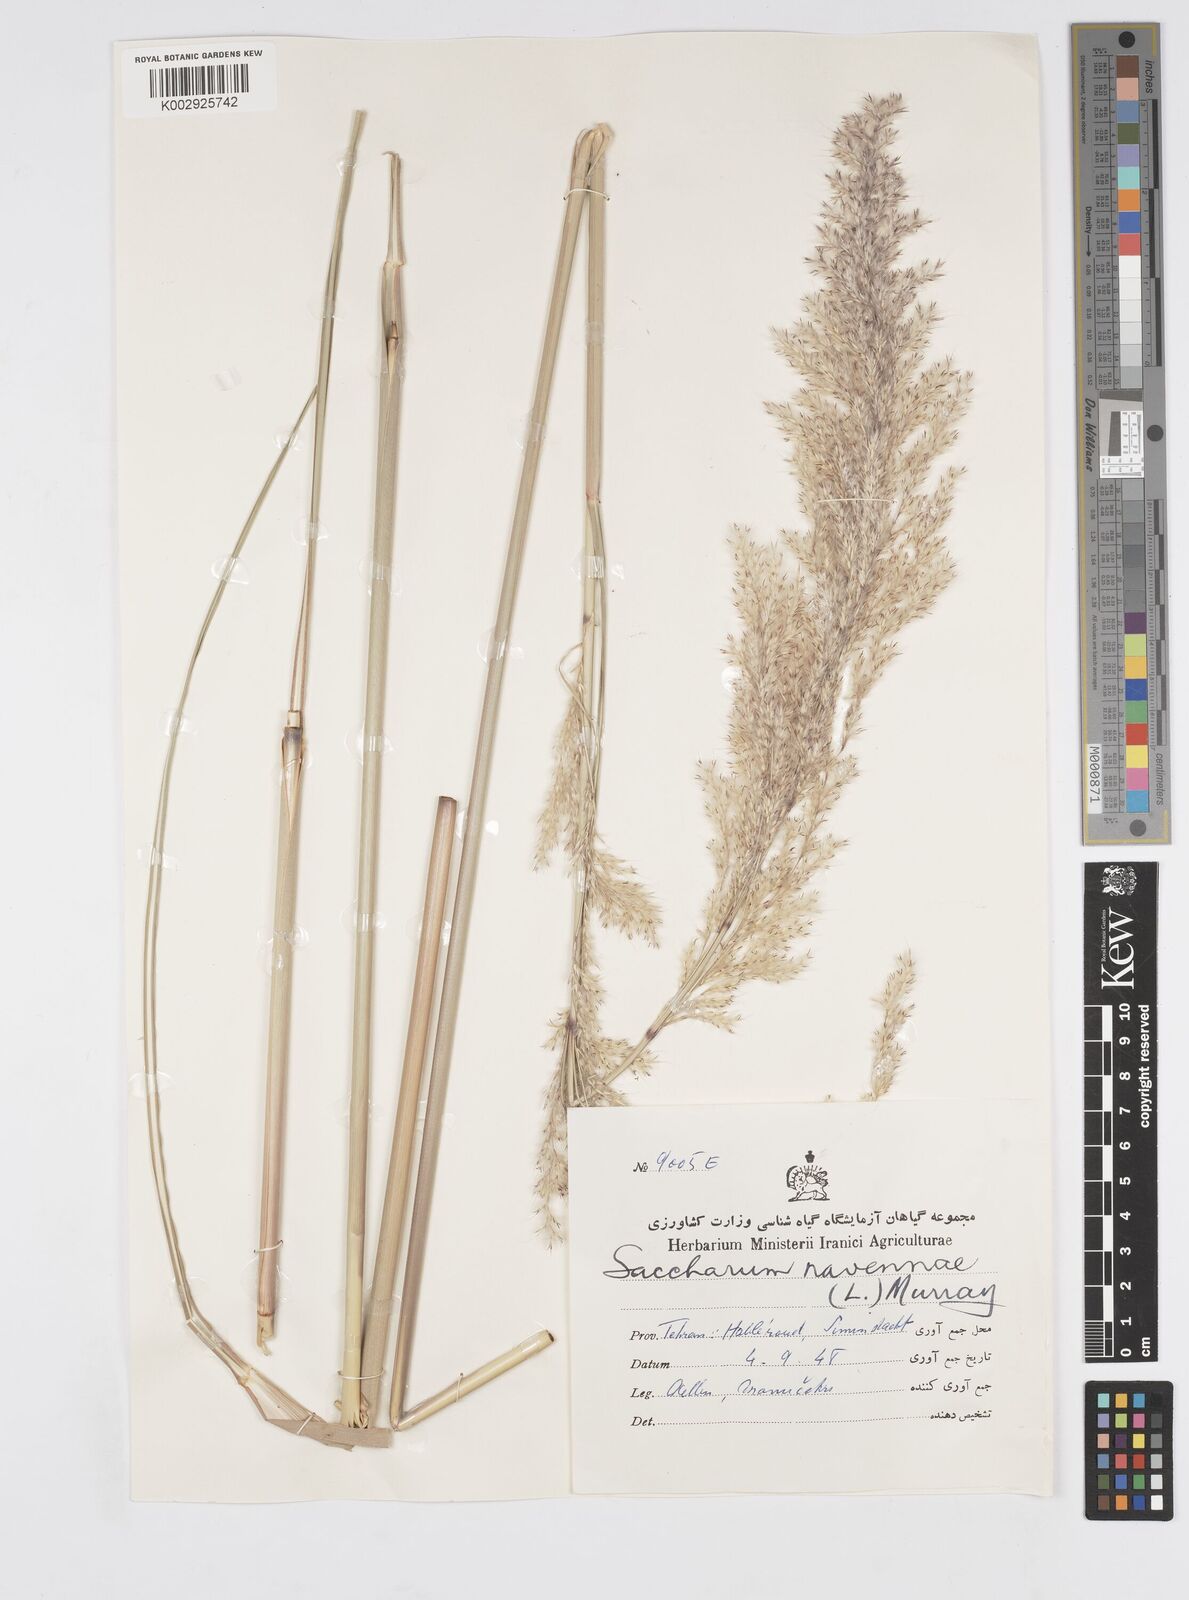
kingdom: Plantae
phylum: Tracheophyta
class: Liliopsida
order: Poales
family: Poaceae
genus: Tripidium
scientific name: Tripidium ravennae
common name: Ravenna grass
